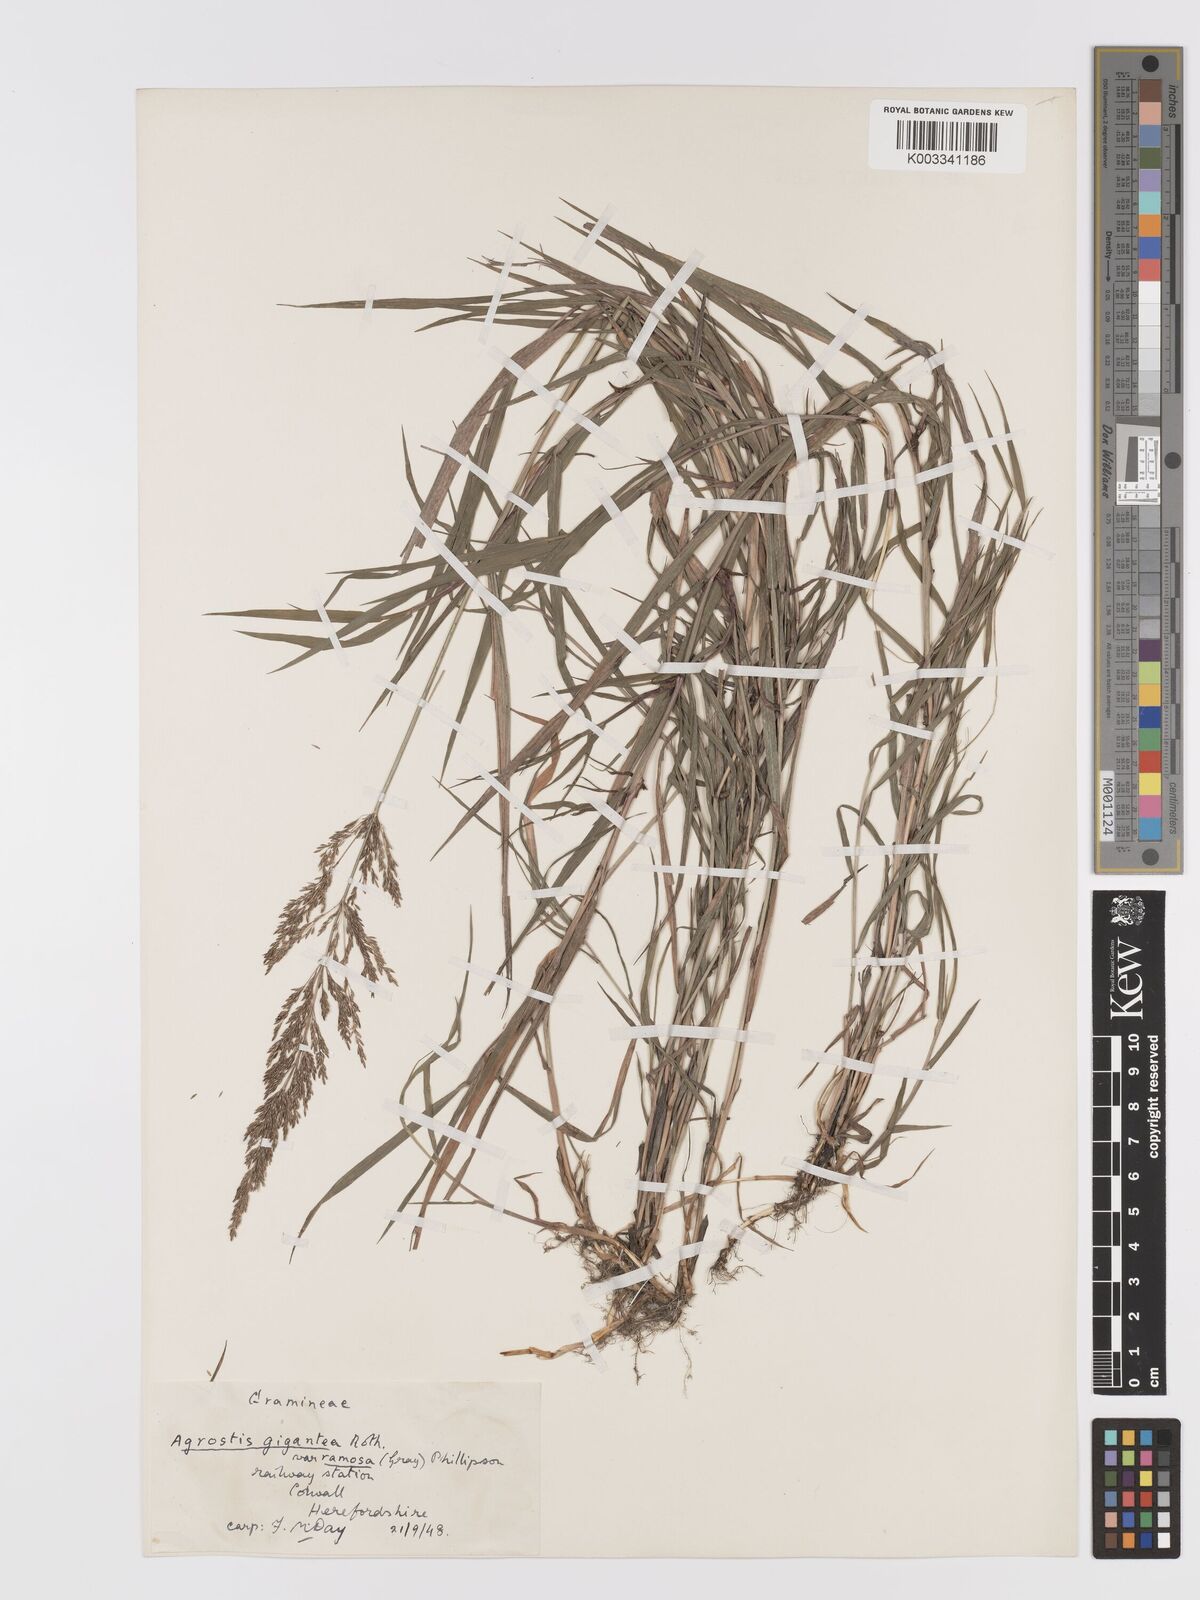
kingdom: Plantae
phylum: Tracheophyta
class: Liliopsida
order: Poales
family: Poaceae
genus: Agrostis
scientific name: Agrostis gigantea
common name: Black bent
